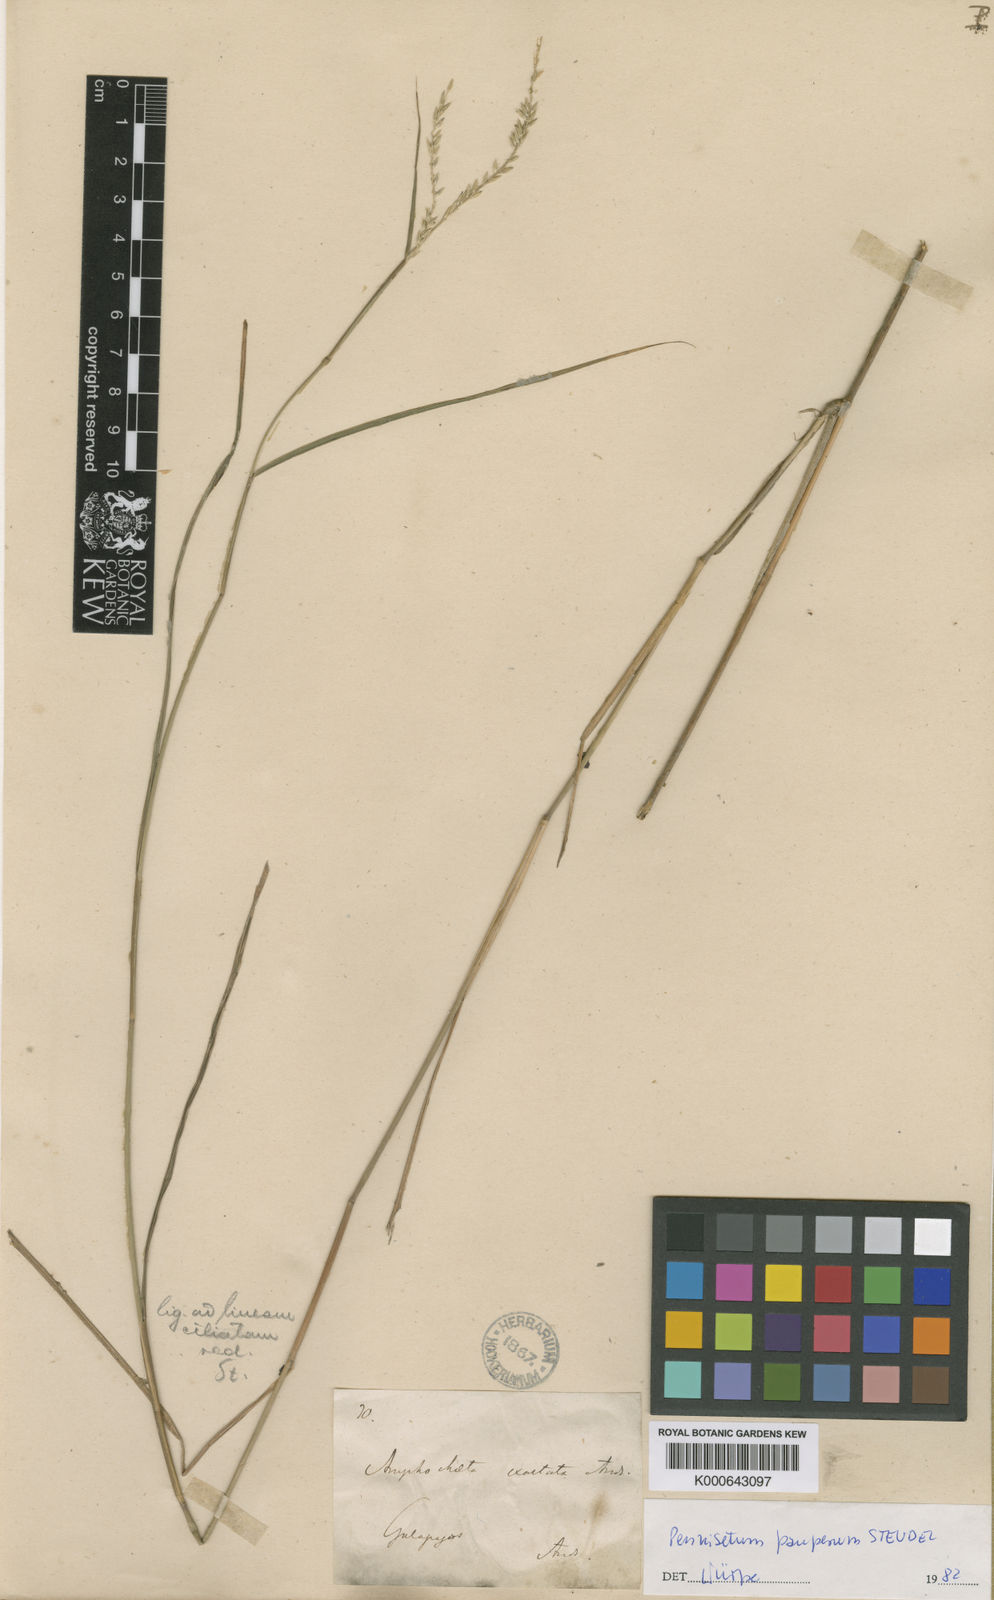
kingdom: Plantae
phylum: Tracheophyta
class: Liliopsida
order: Poales
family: Poaceae
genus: Cenchrus
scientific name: Cenchrus pauper
